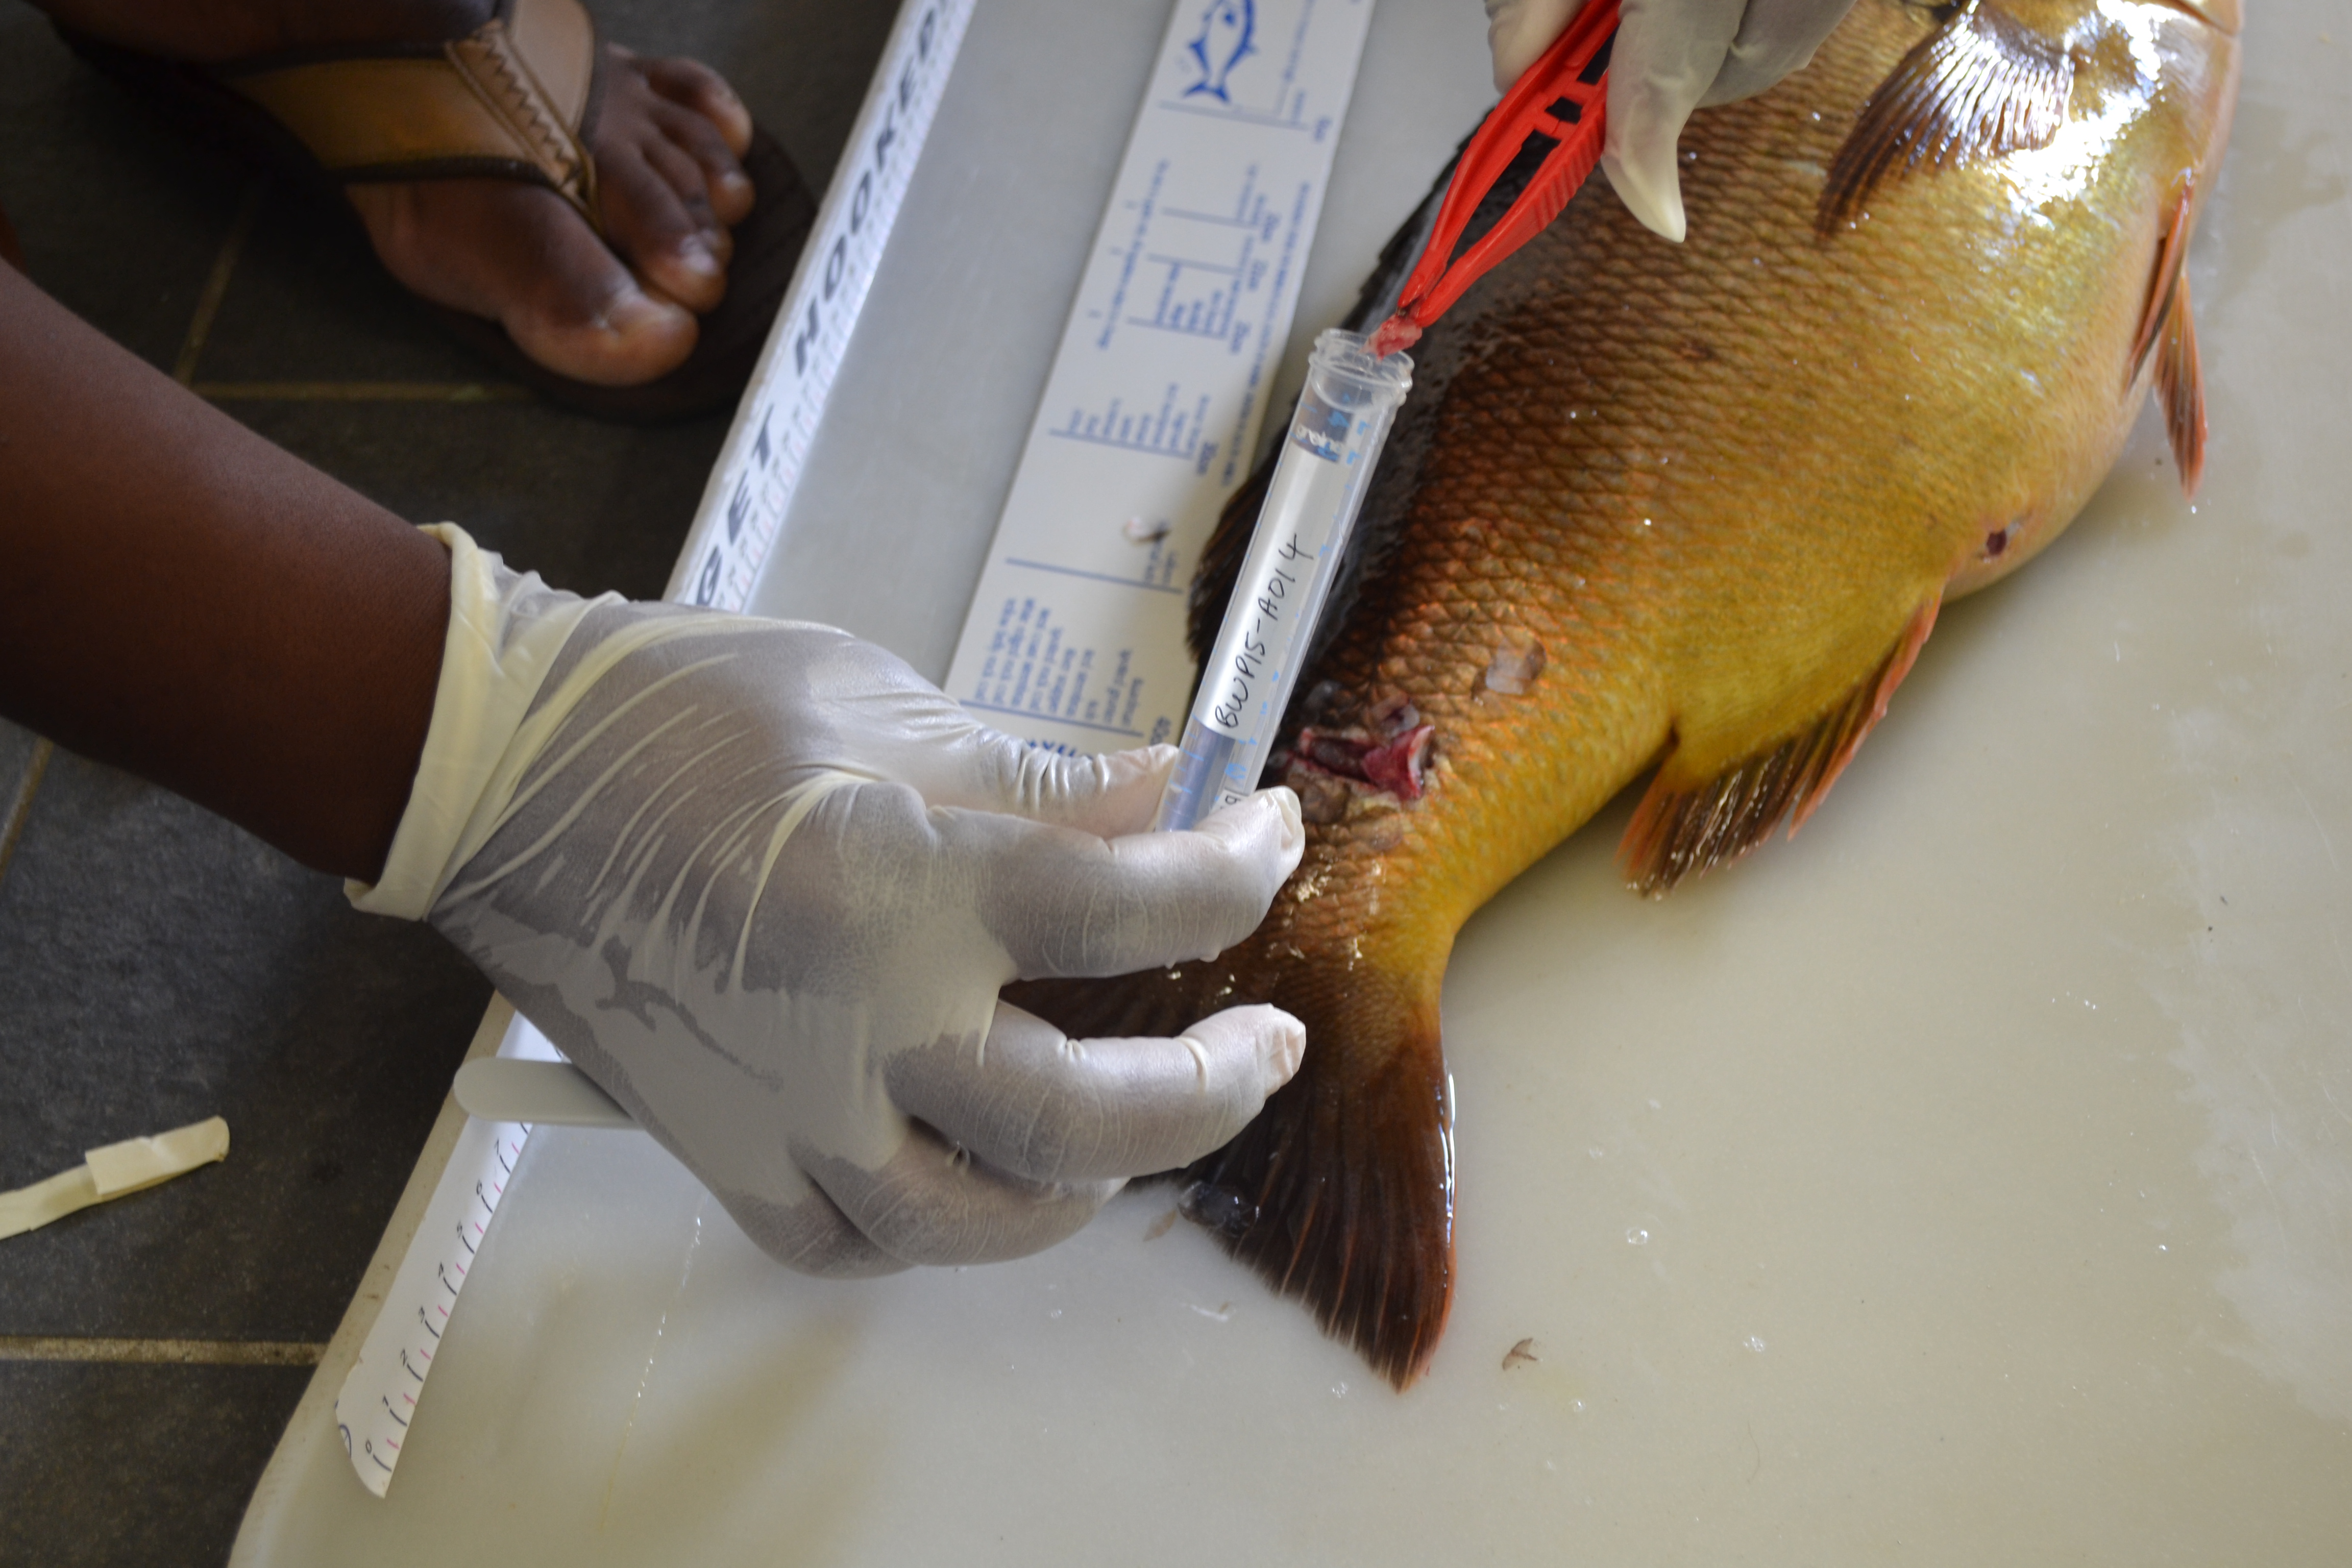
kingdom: Animalia
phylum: Chordata
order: Perciformes
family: Sparidae
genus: Petrus
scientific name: Petrus rupestris
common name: Red steenbras
